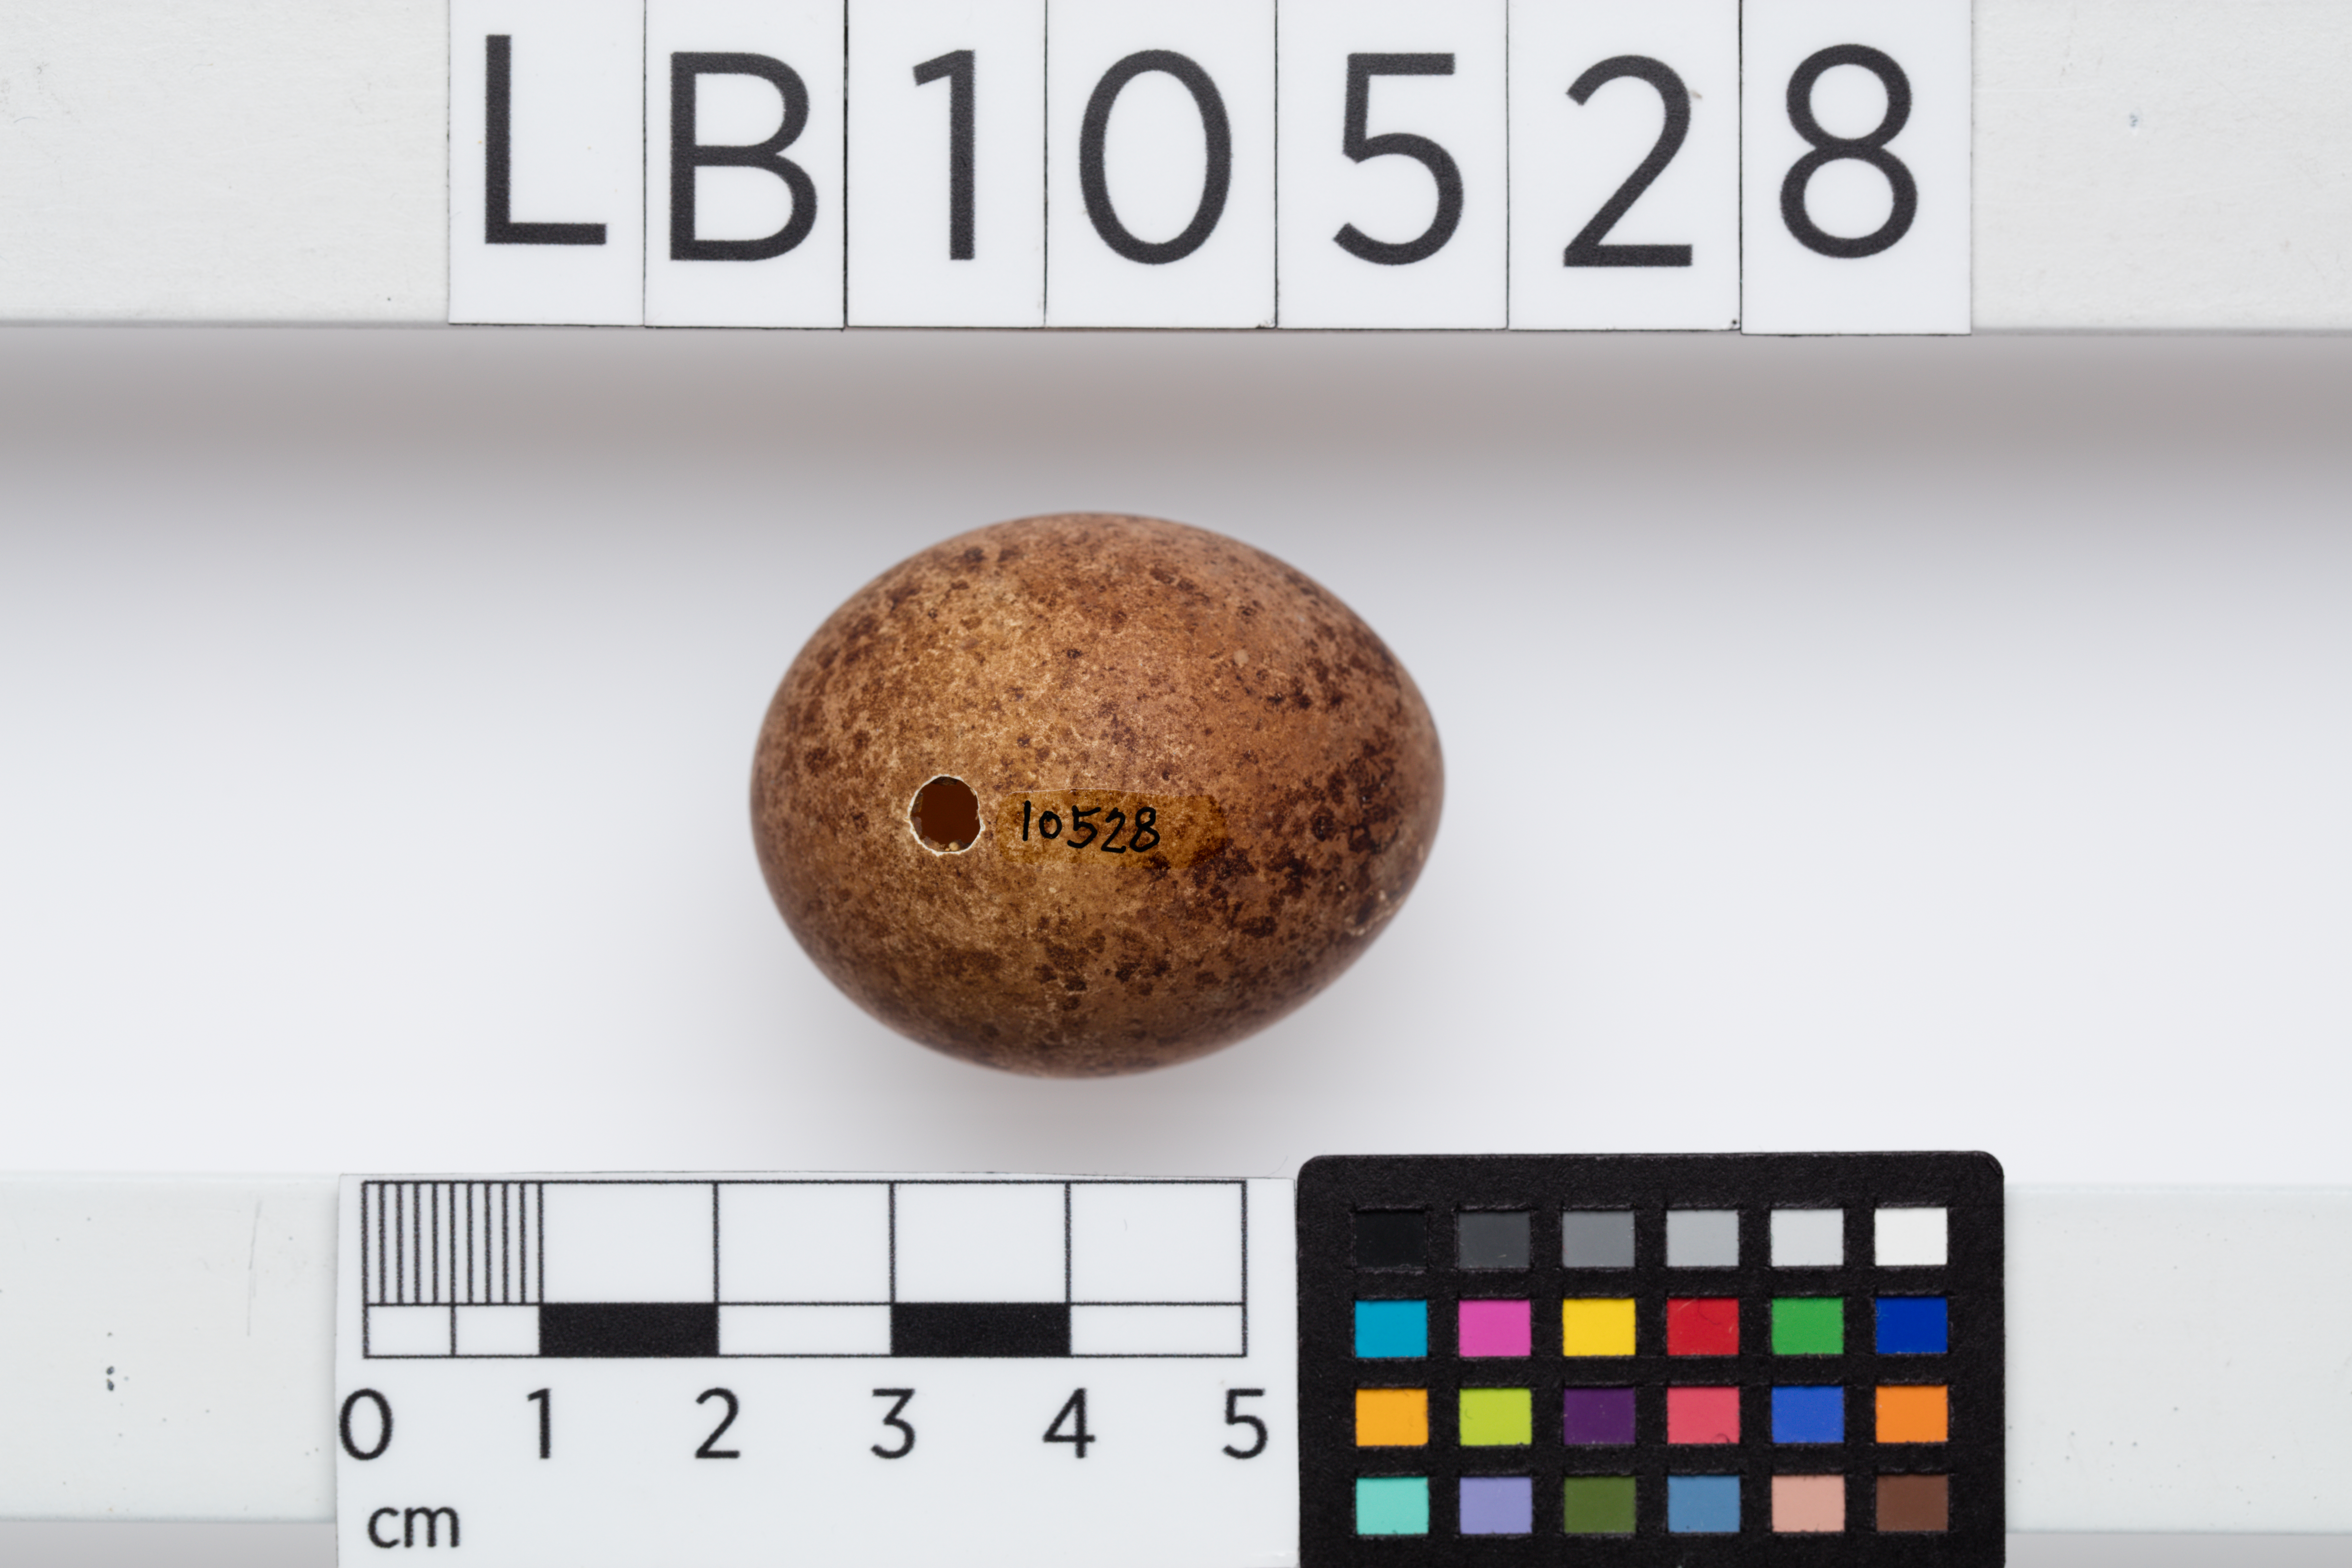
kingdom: Animalia
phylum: Chordata
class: Aves
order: Falconiformes
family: Falconidae
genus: Falco
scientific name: Falco columbarius
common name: Merlin
